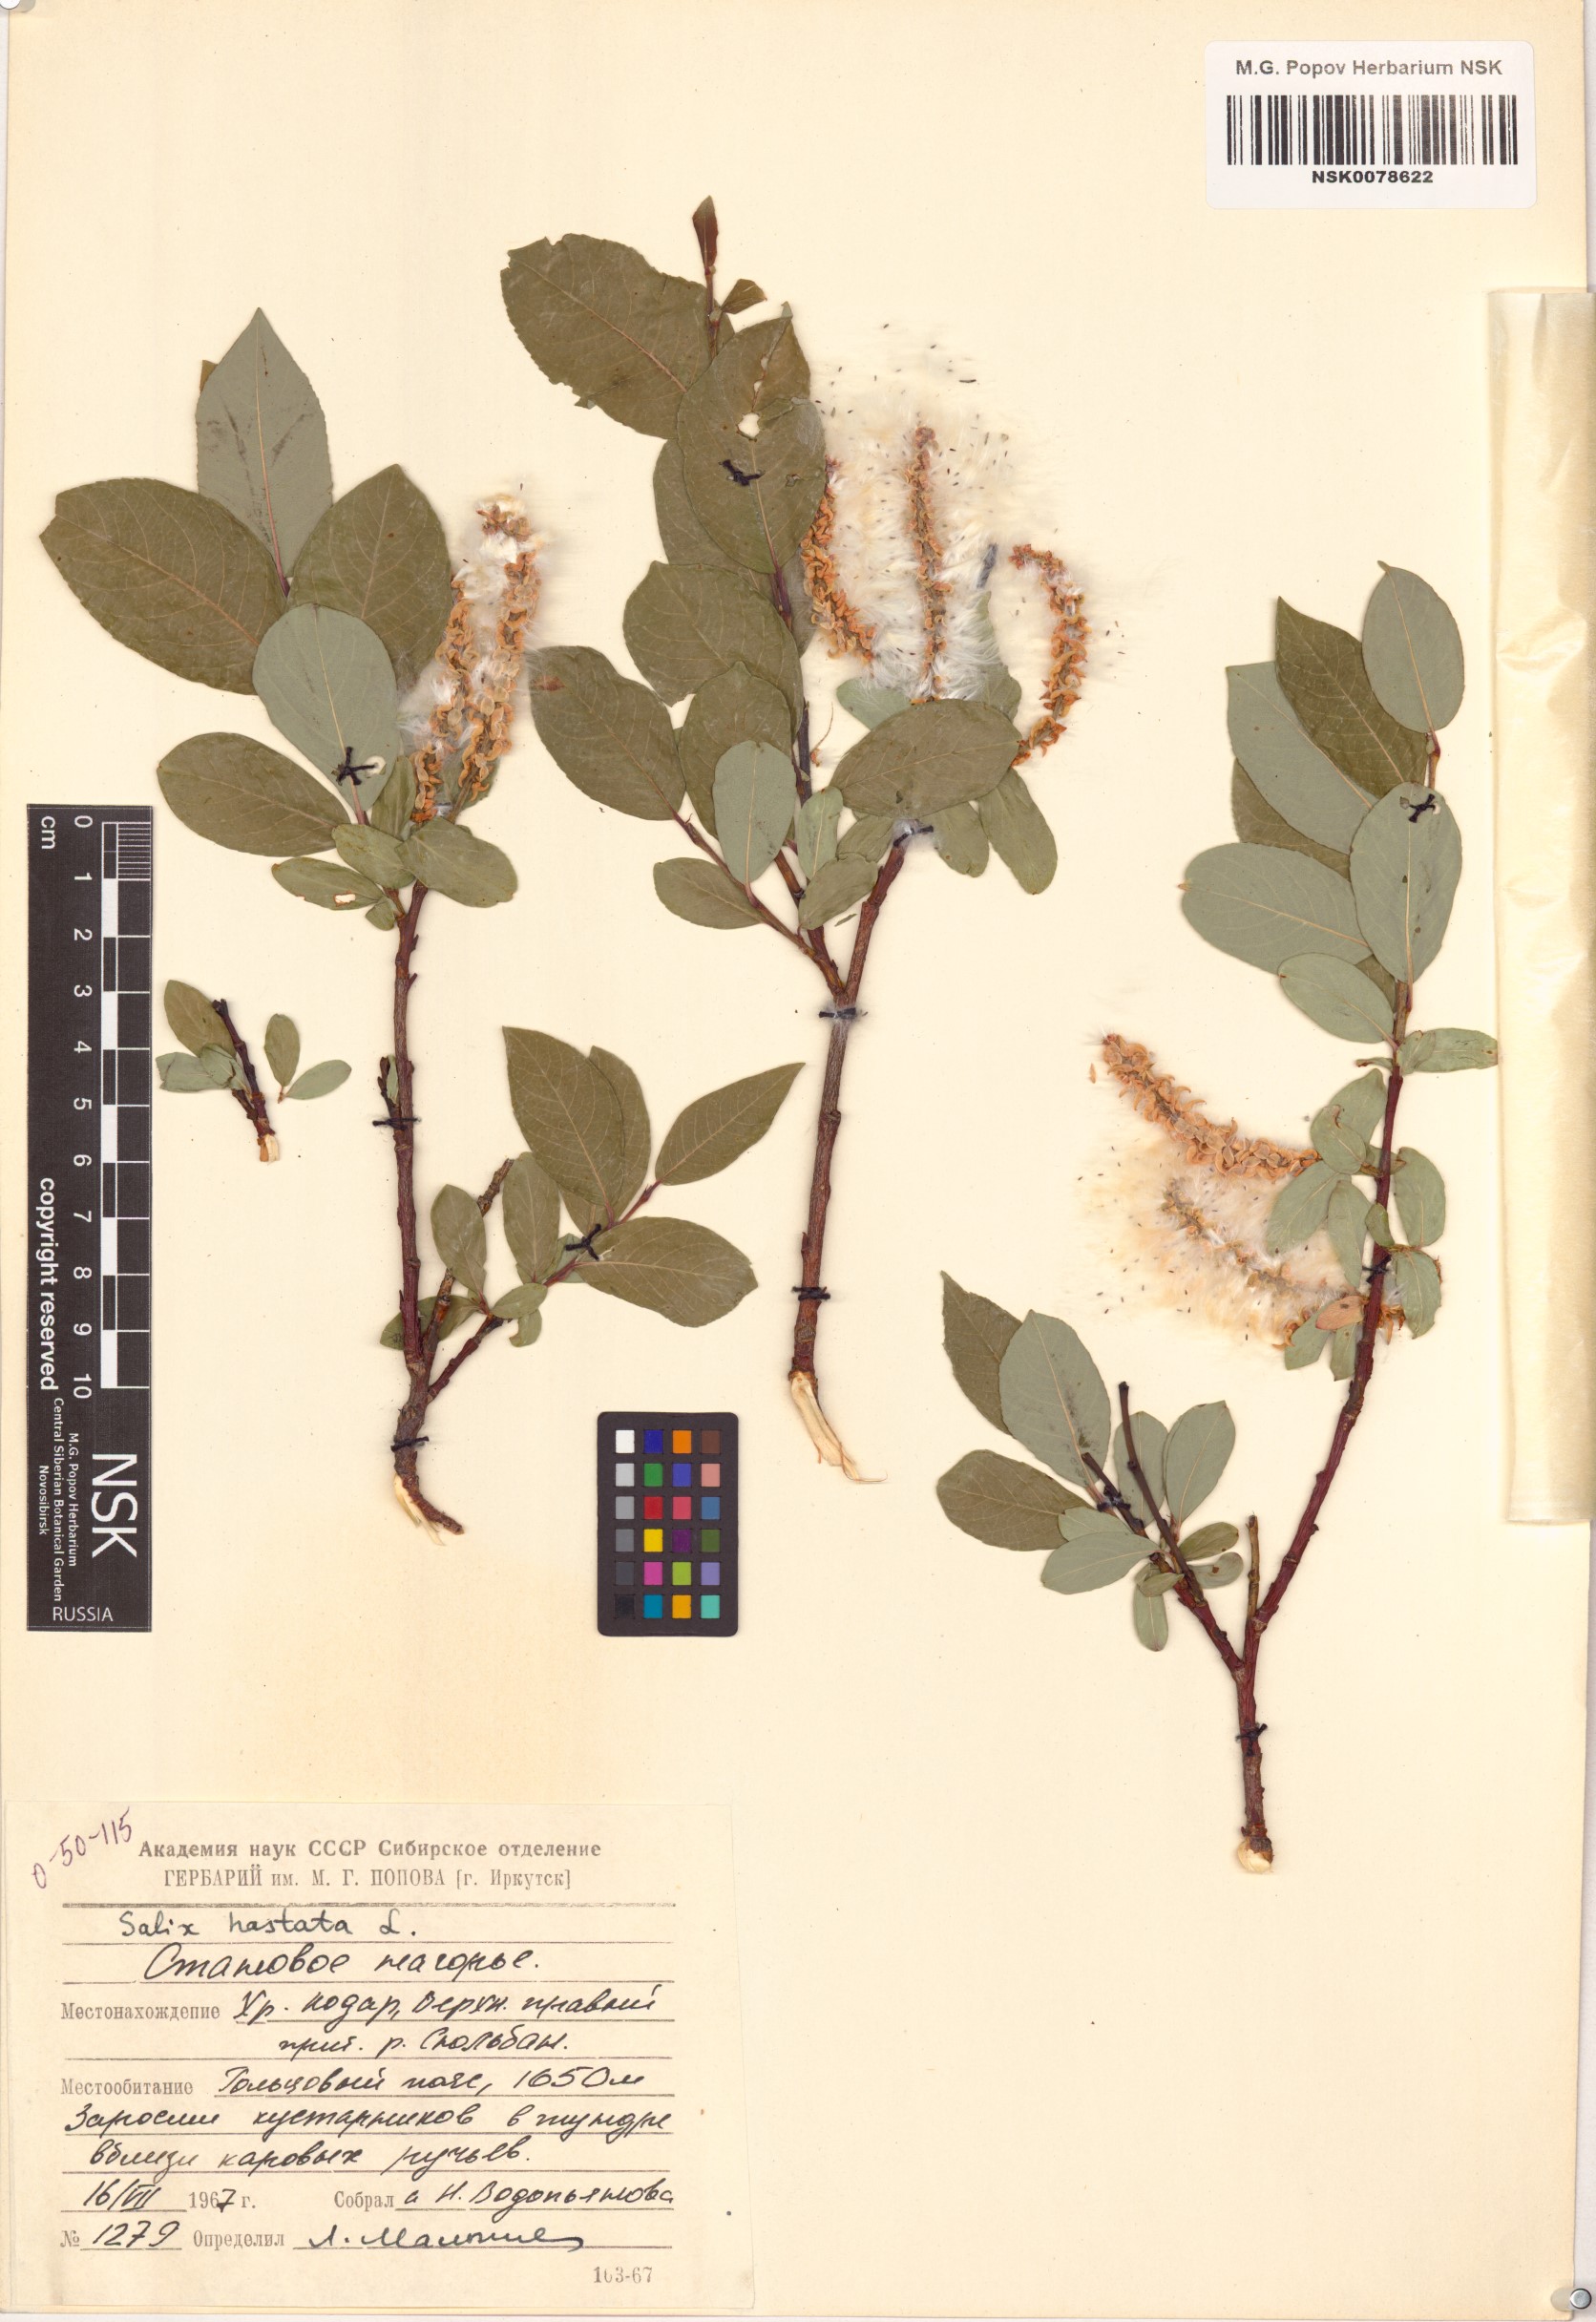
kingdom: Plantae
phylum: Tracheophyta
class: Magnoliopsida
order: Malpighiales
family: Salicaceae
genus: Salix
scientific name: Salix hastata
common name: Halberd willow
